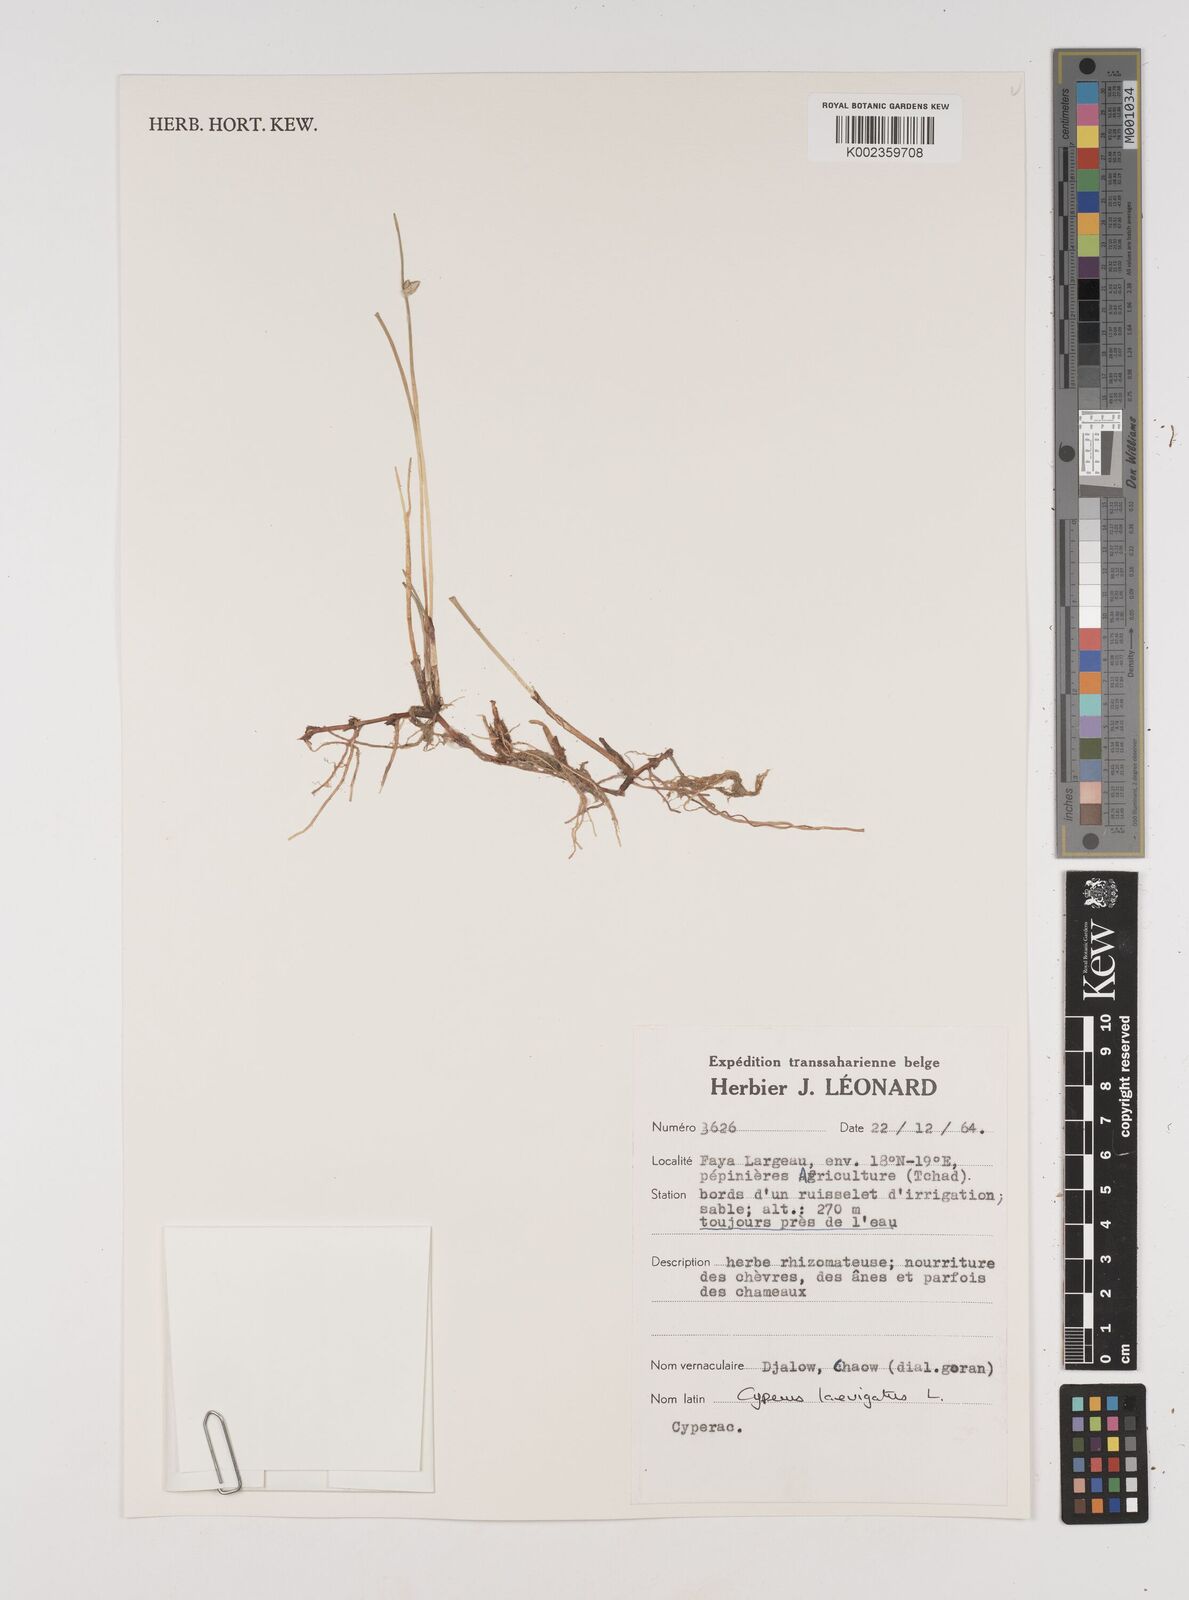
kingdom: Plantae
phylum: Tracheophyta
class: Liliopsida
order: Poales
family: Cyperaceae
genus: Cyperus
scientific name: Cyperus laevigatus
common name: Smooth flat sedge
